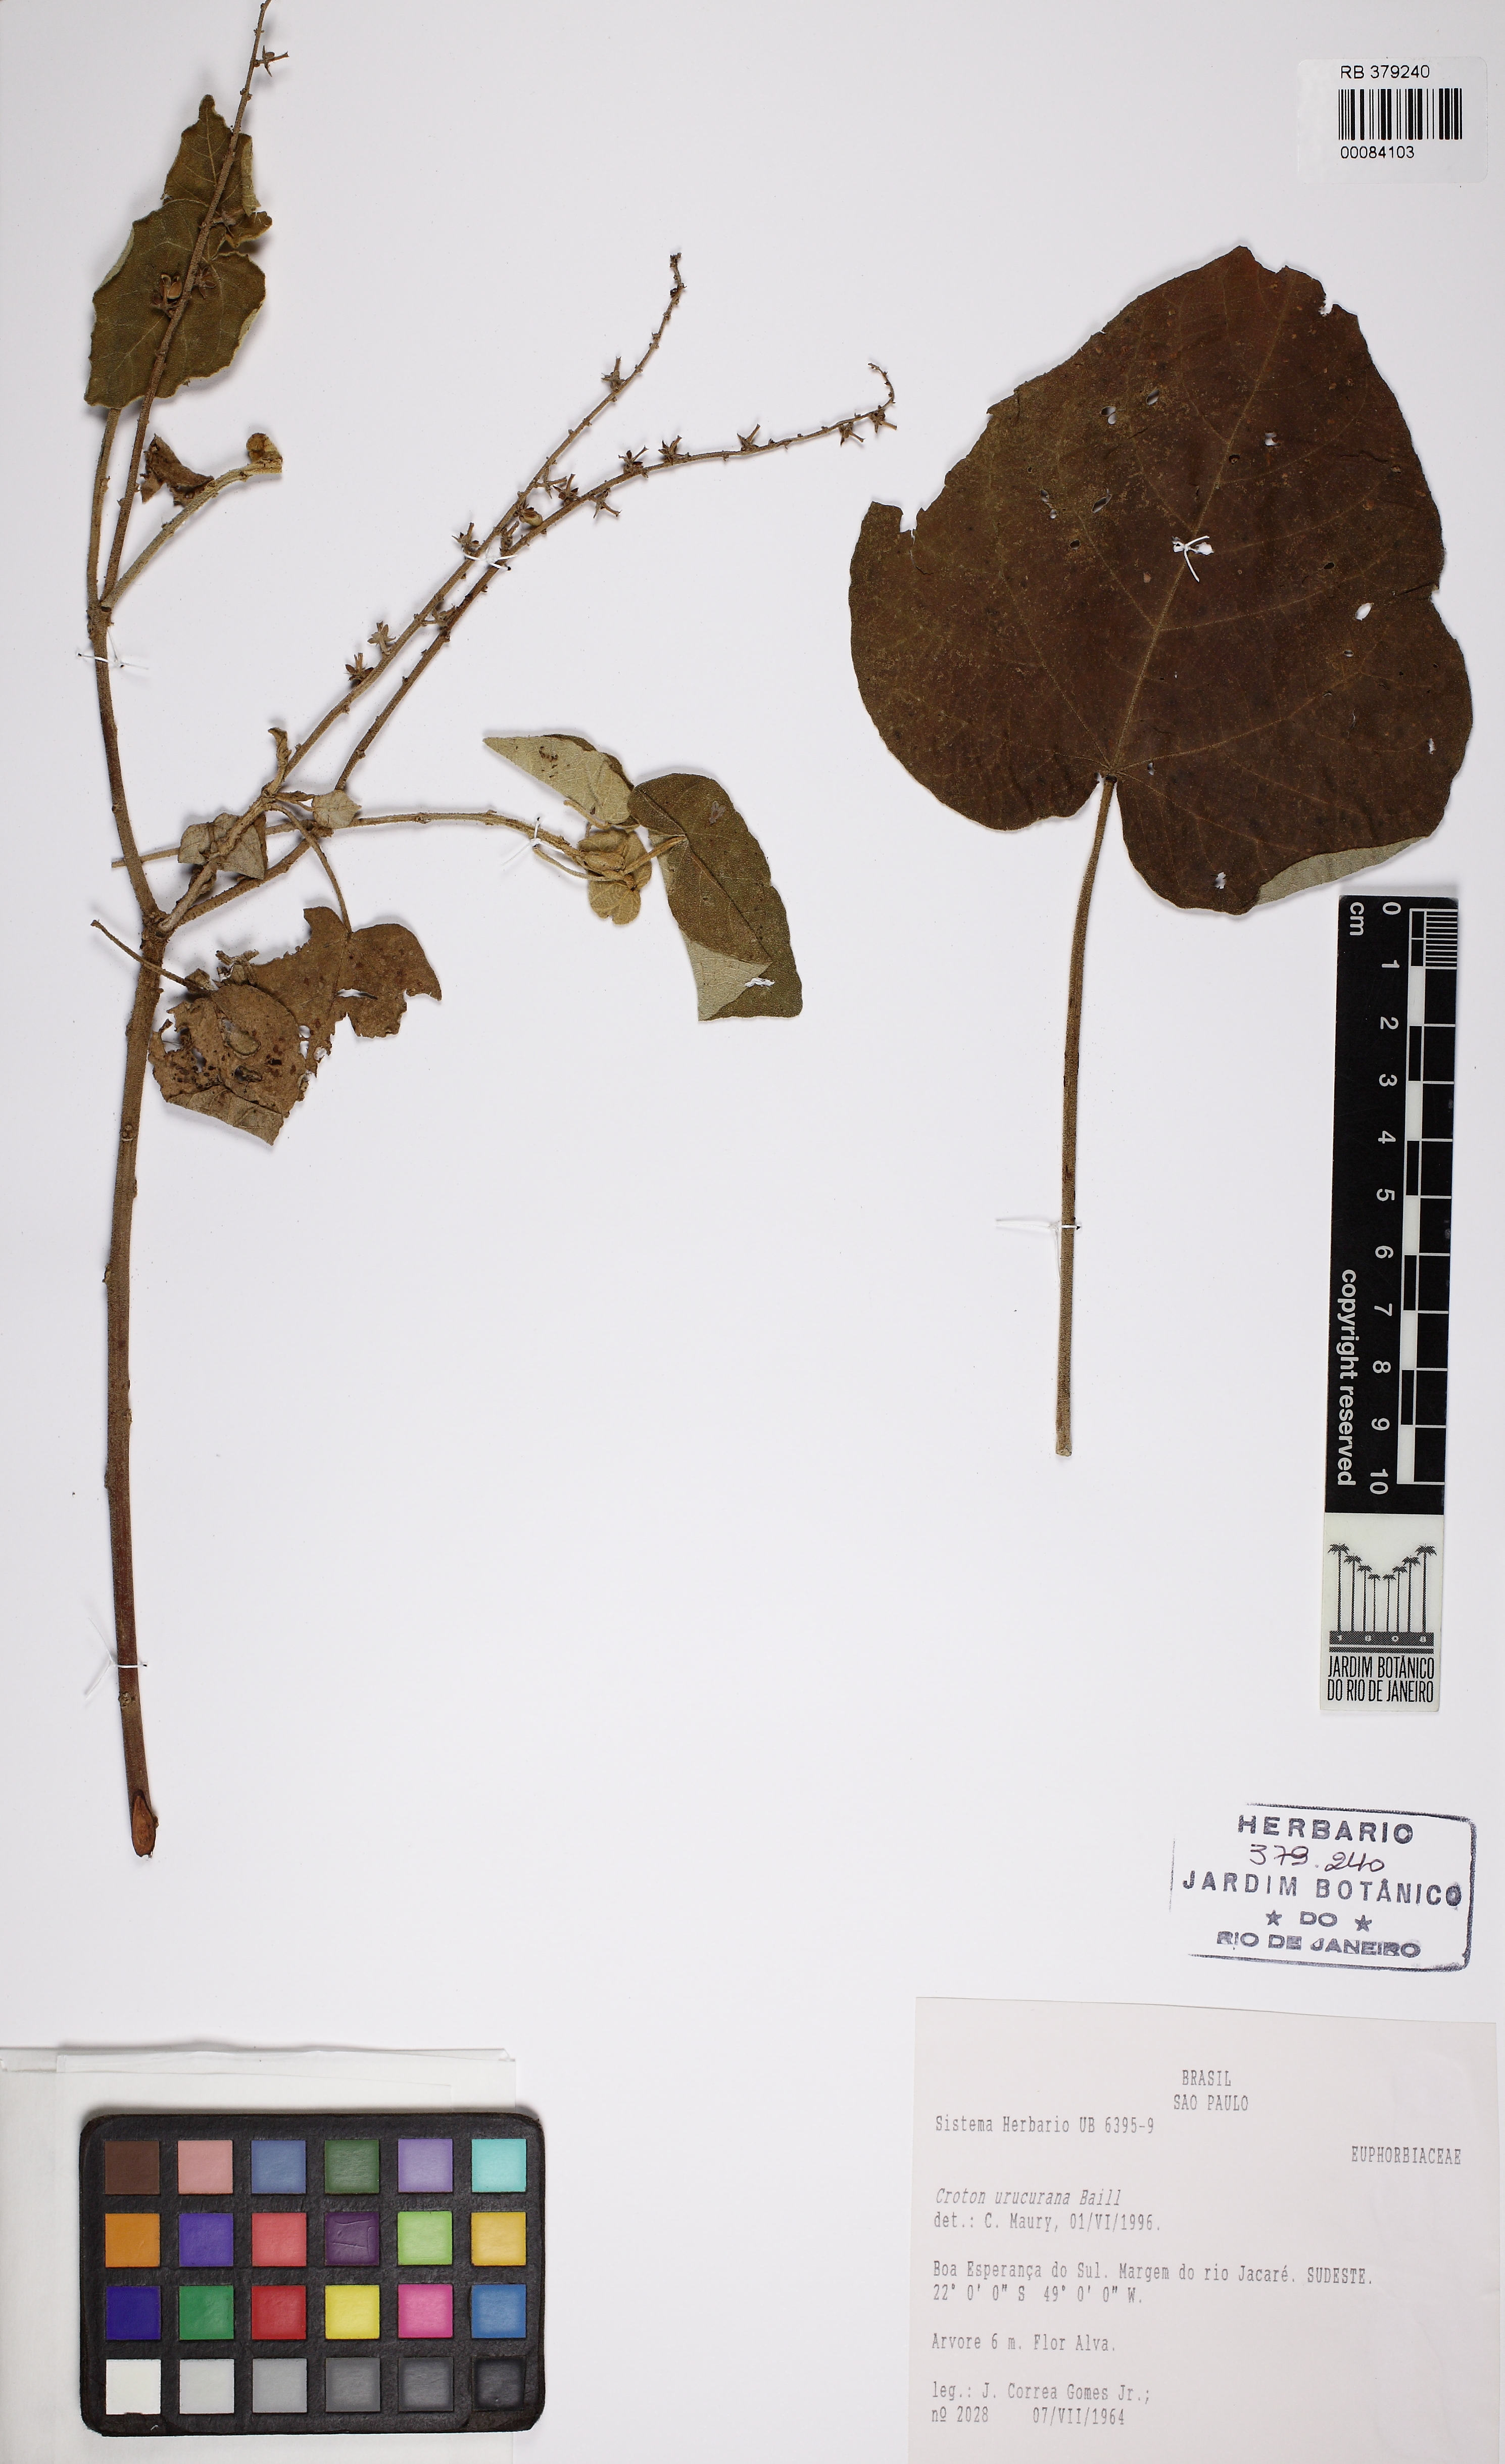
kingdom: Plantae
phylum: Tracheophyta
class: Magnoliopsida
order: Malpighiales
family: Euphorbiaceae
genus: Croton
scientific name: Croton urucurana
